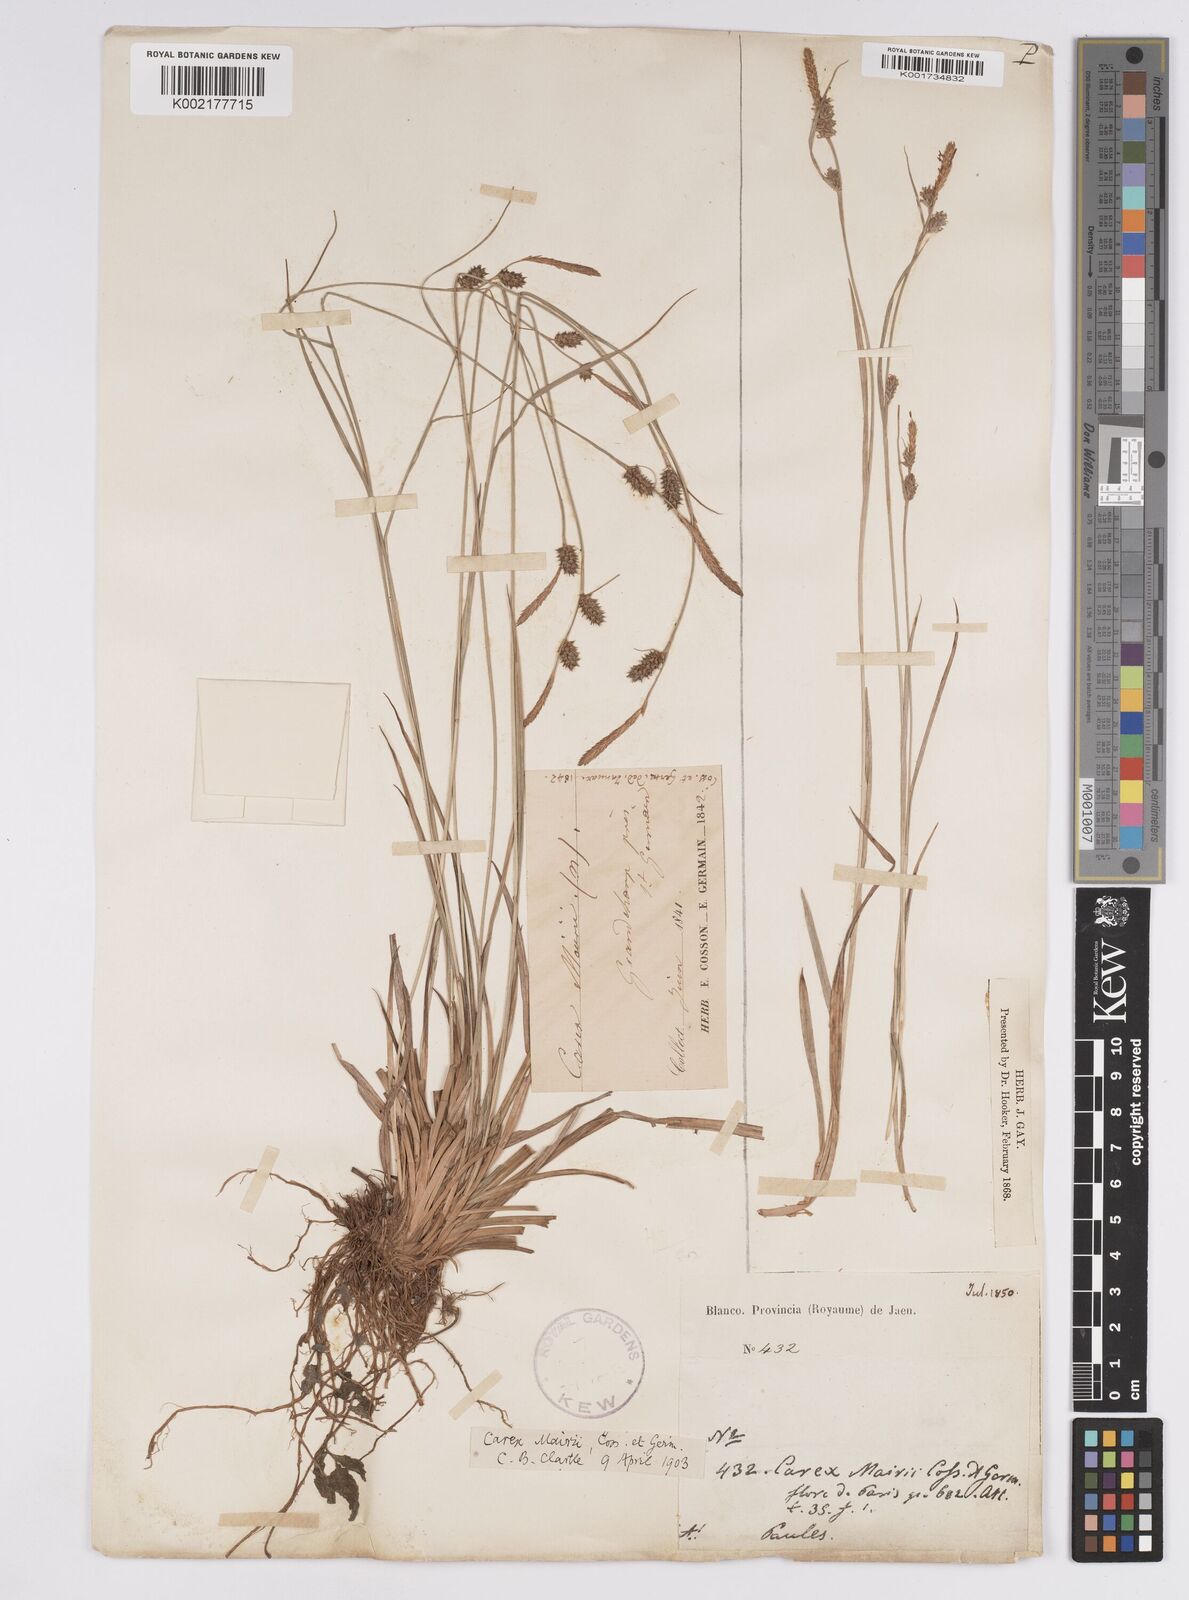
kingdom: Plantae
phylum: Tracheophyta
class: Liliopsida
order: Poales
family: Cyperaceae
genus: Carex
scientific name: Carex mairei
